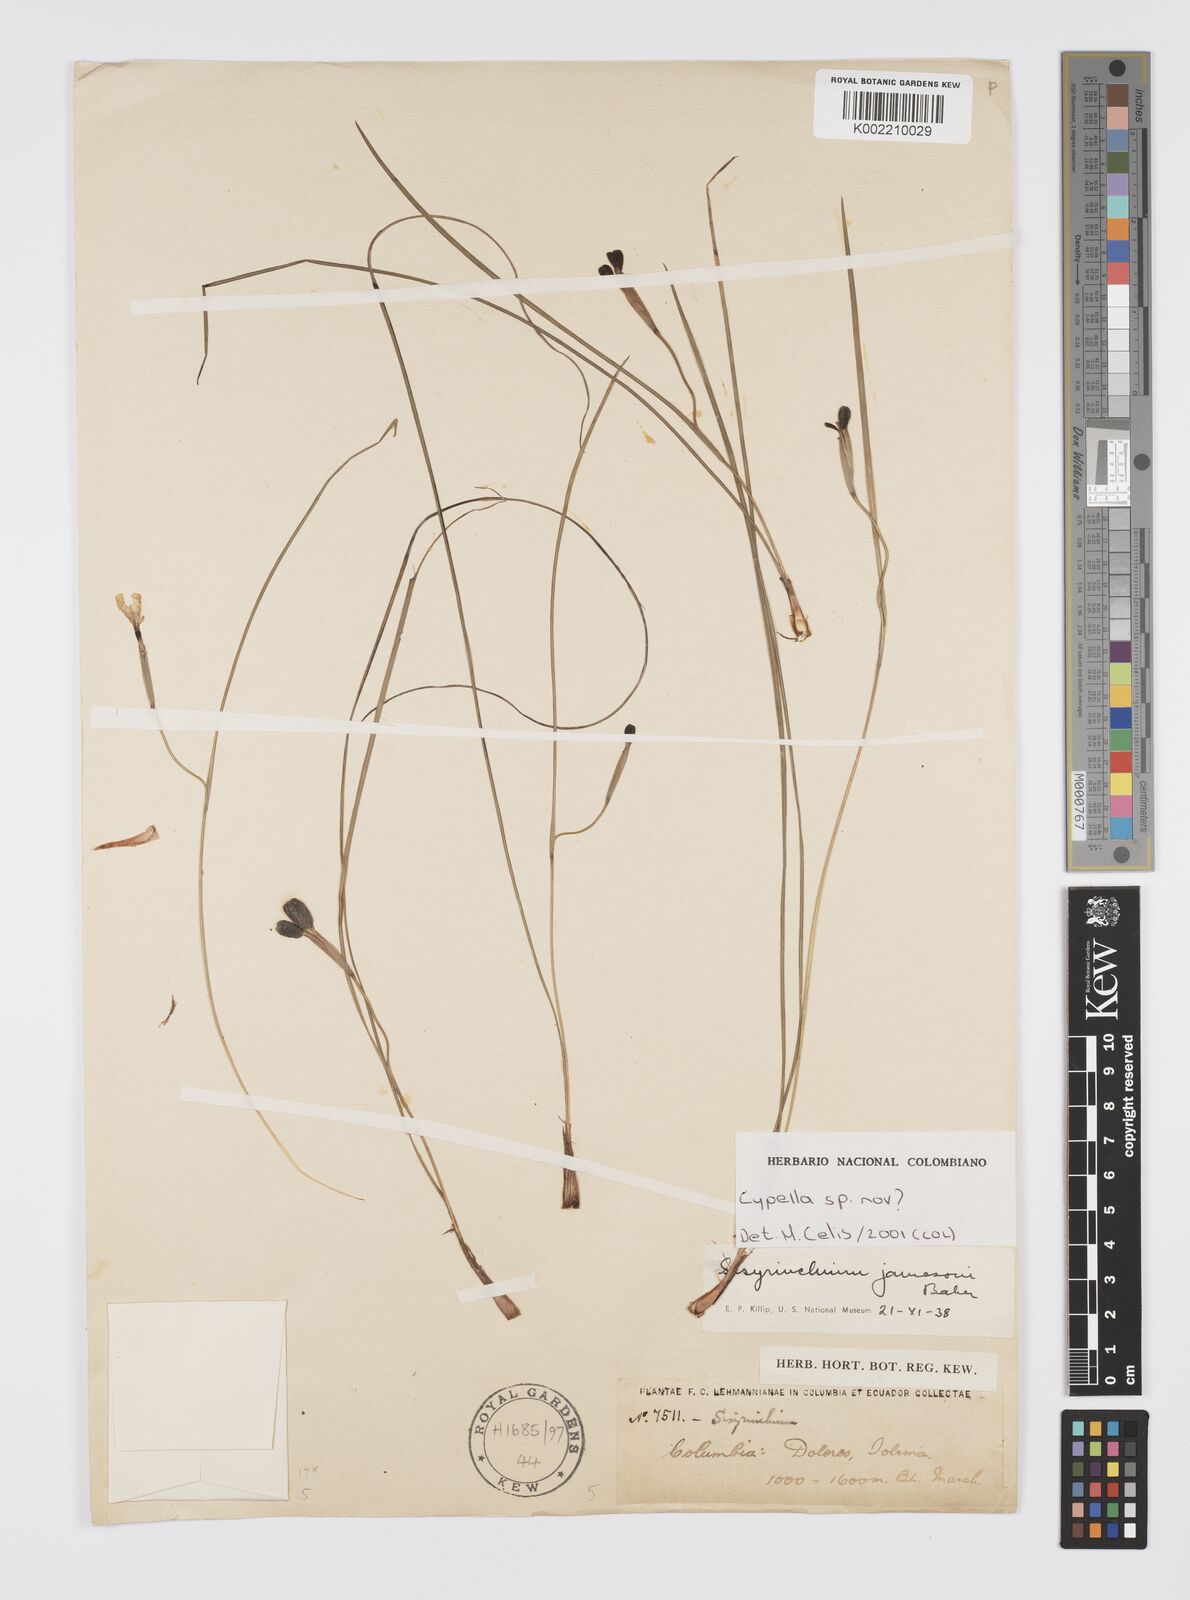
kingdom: Plantae
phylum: Tracheophyta
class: Liliopsida
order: Asparagales
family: Iridaceae
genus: Cypella
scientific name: Cypella
